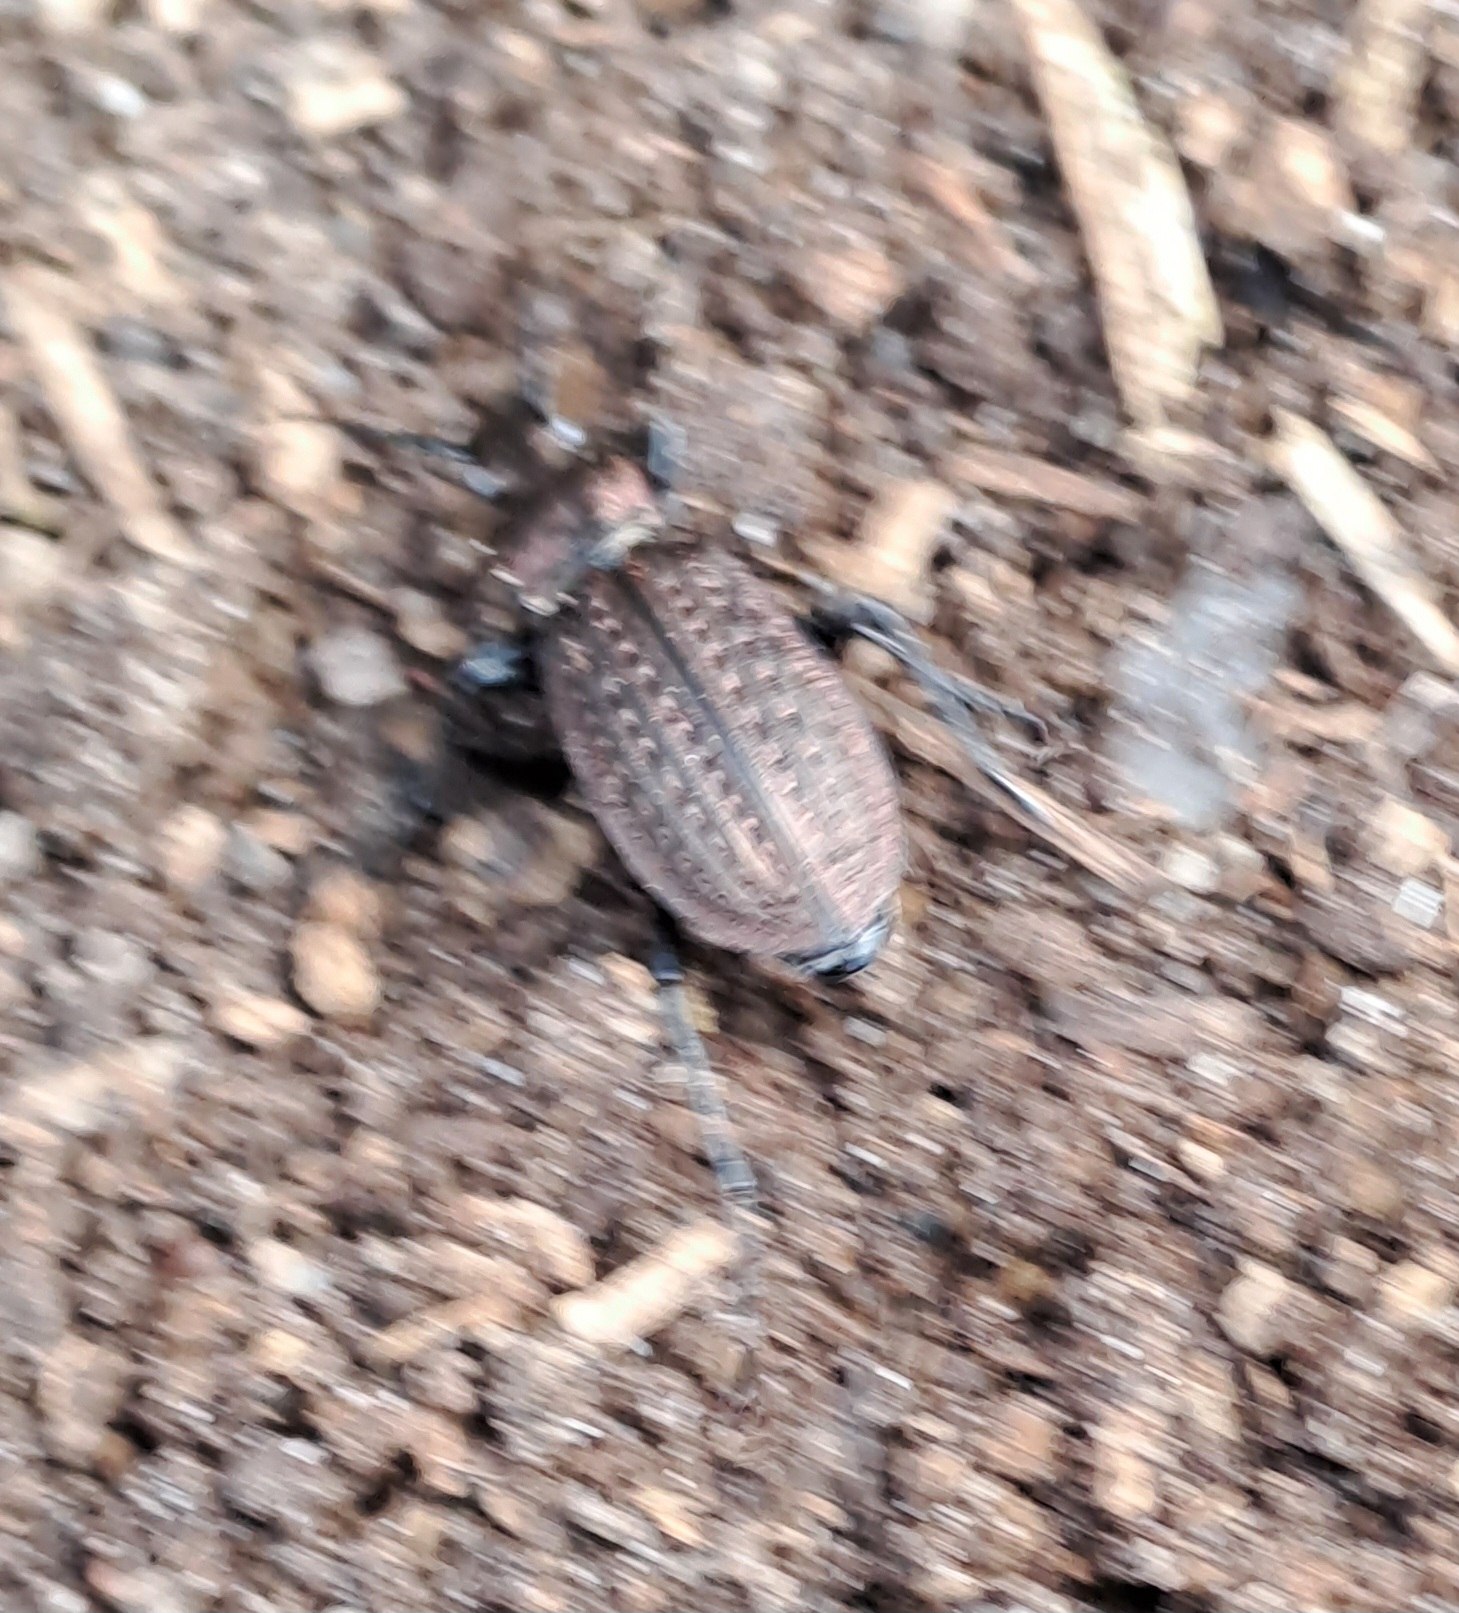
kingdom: Animalia
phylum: Arthropoda
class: Insecta
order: Coleoptera
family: Carabidae
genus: Carabus
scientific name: Carabus granulatus
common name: Kornet løber
